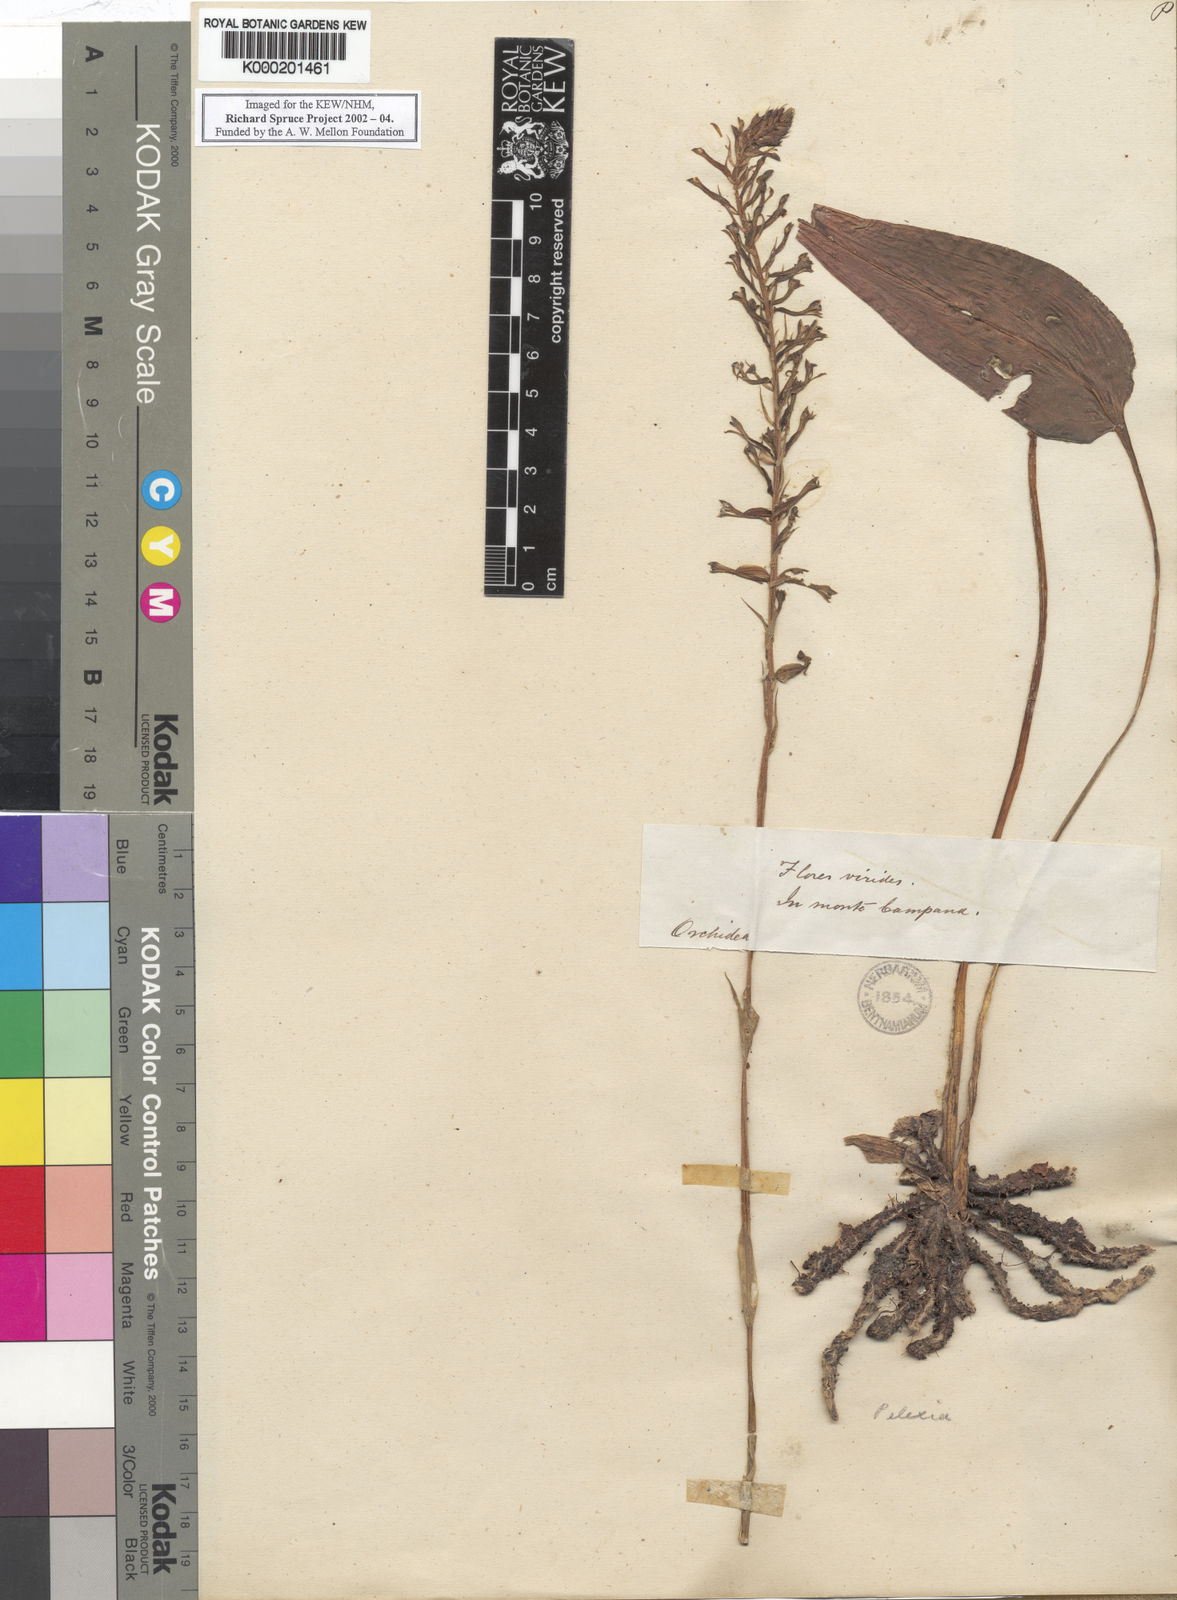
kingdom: Plantae
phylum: Tracheophyta
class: Liliopsida
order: Asparagales
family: Orchidaceae
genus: Pelexia
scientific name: Pelexia
